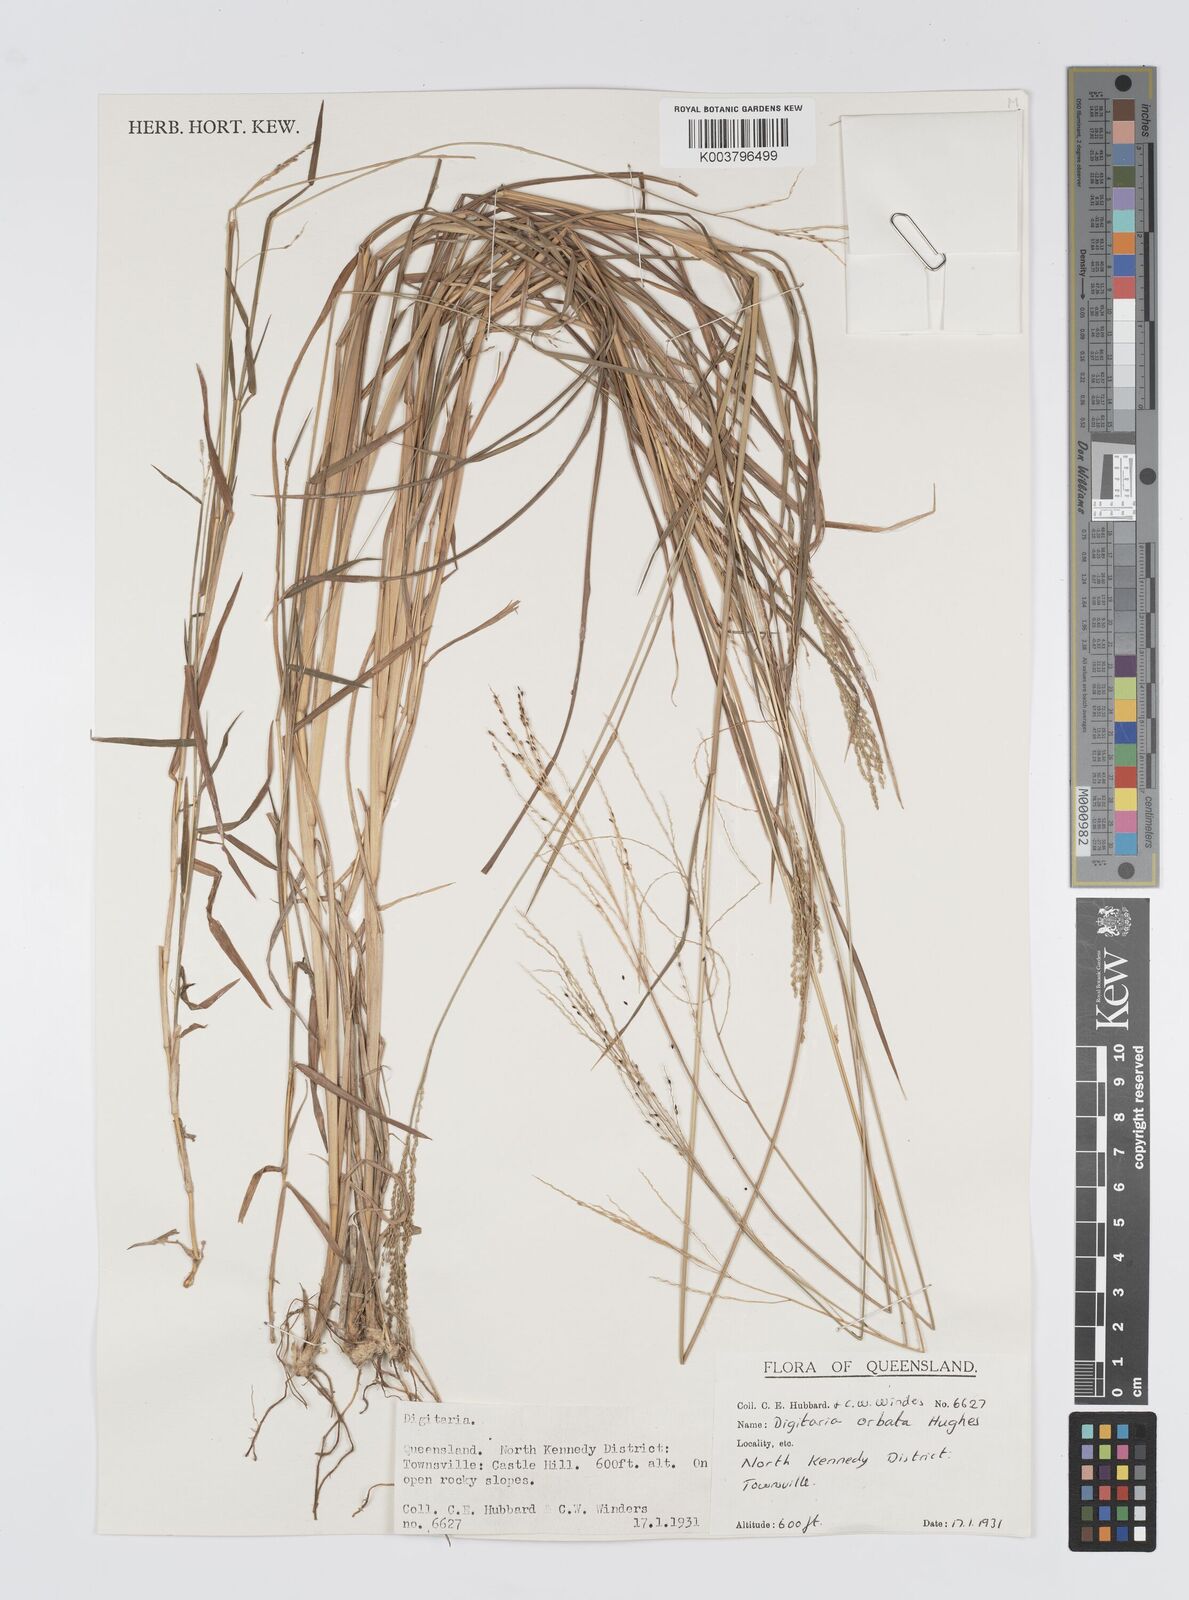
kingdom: Plantae
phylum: Tracheophyta
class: Liliopsida
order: Poales
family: Poaceae
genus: Digitaria
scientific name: Digitaria orbata
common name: Crabgrass
